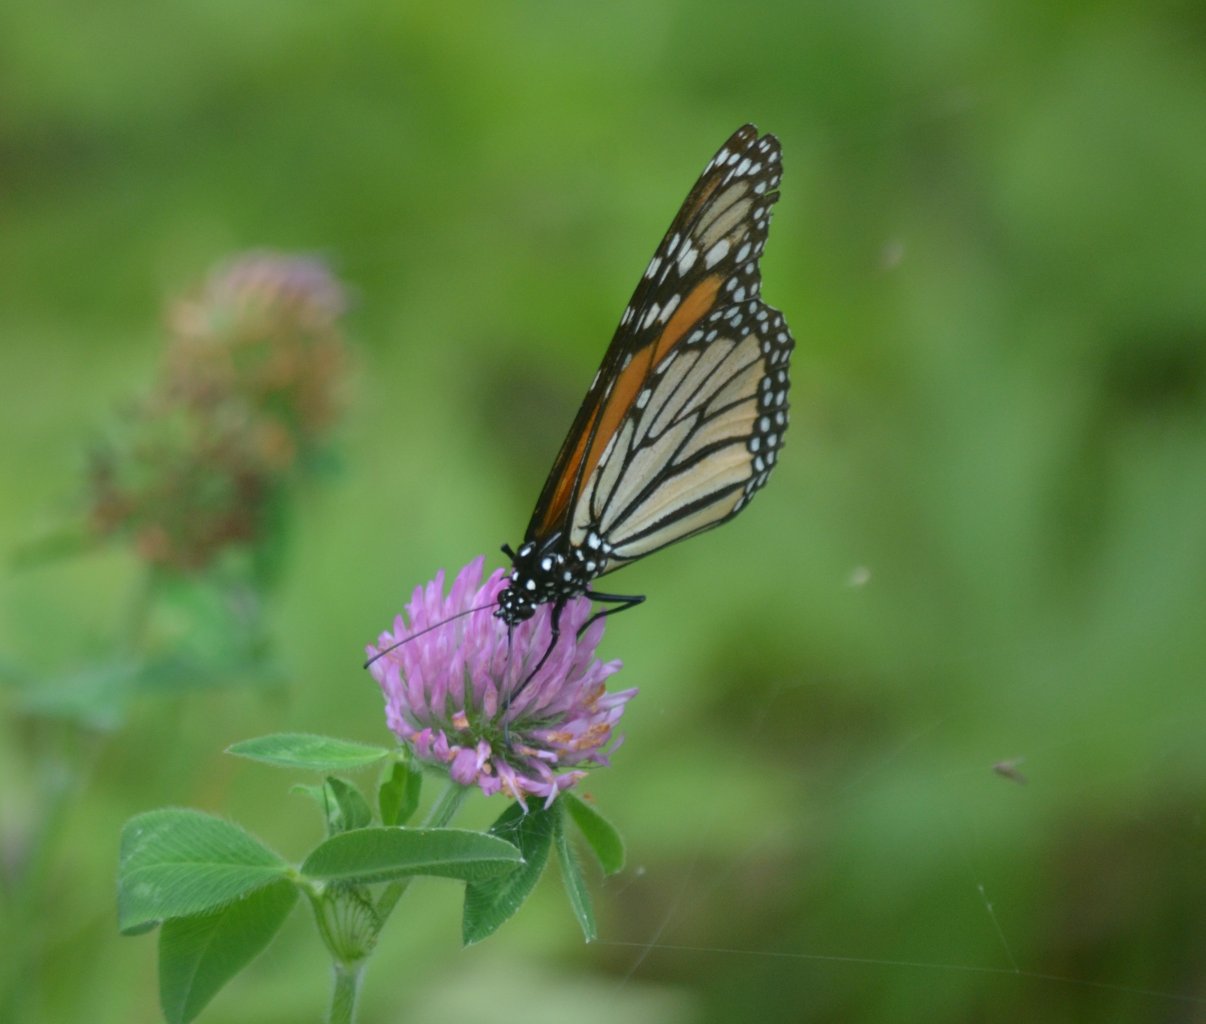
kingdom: Animalia
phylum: Arthropoda
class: Insecta
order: Lepidoptera
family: Nymphalidae
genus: Danaus
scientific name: Danaus plexippus
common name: Monarch
